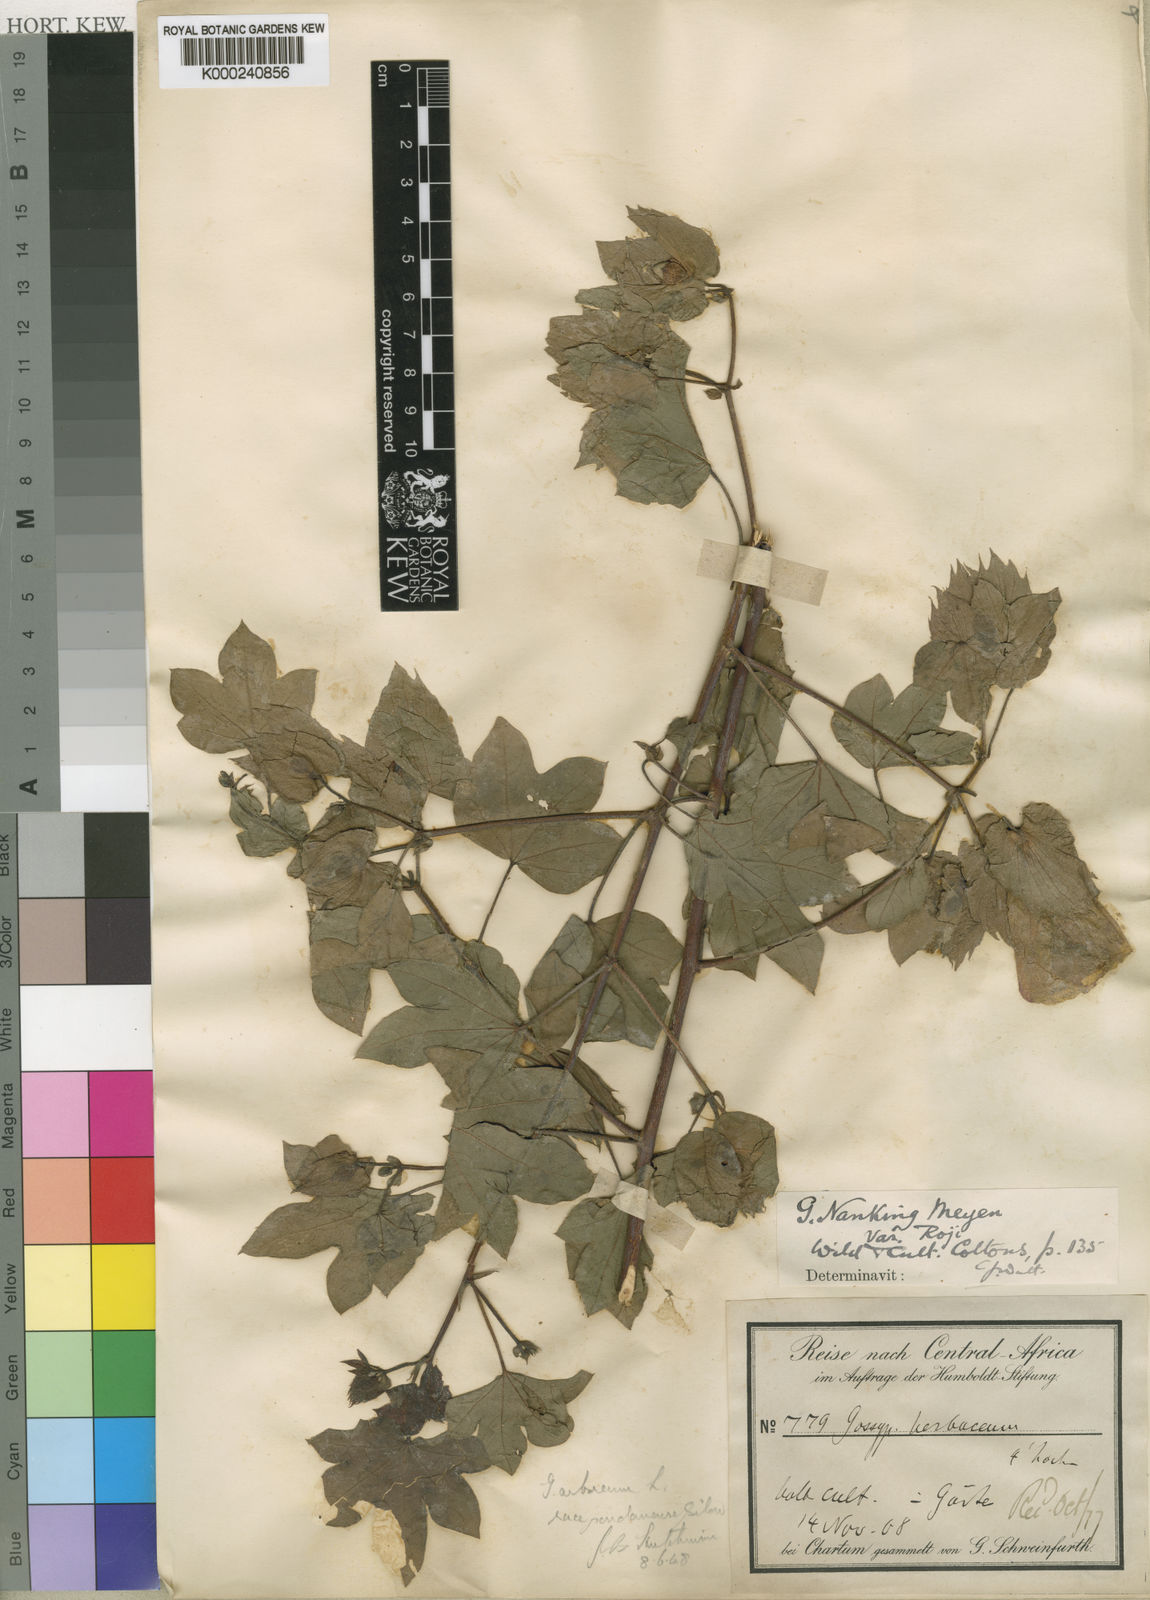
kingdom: Plantae
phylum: Tracheophyta
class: Magnoliopsida
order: Malvales
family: Malvaceae
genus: Gossypium
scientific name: Gossypium arboreum
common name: Tree cotton
